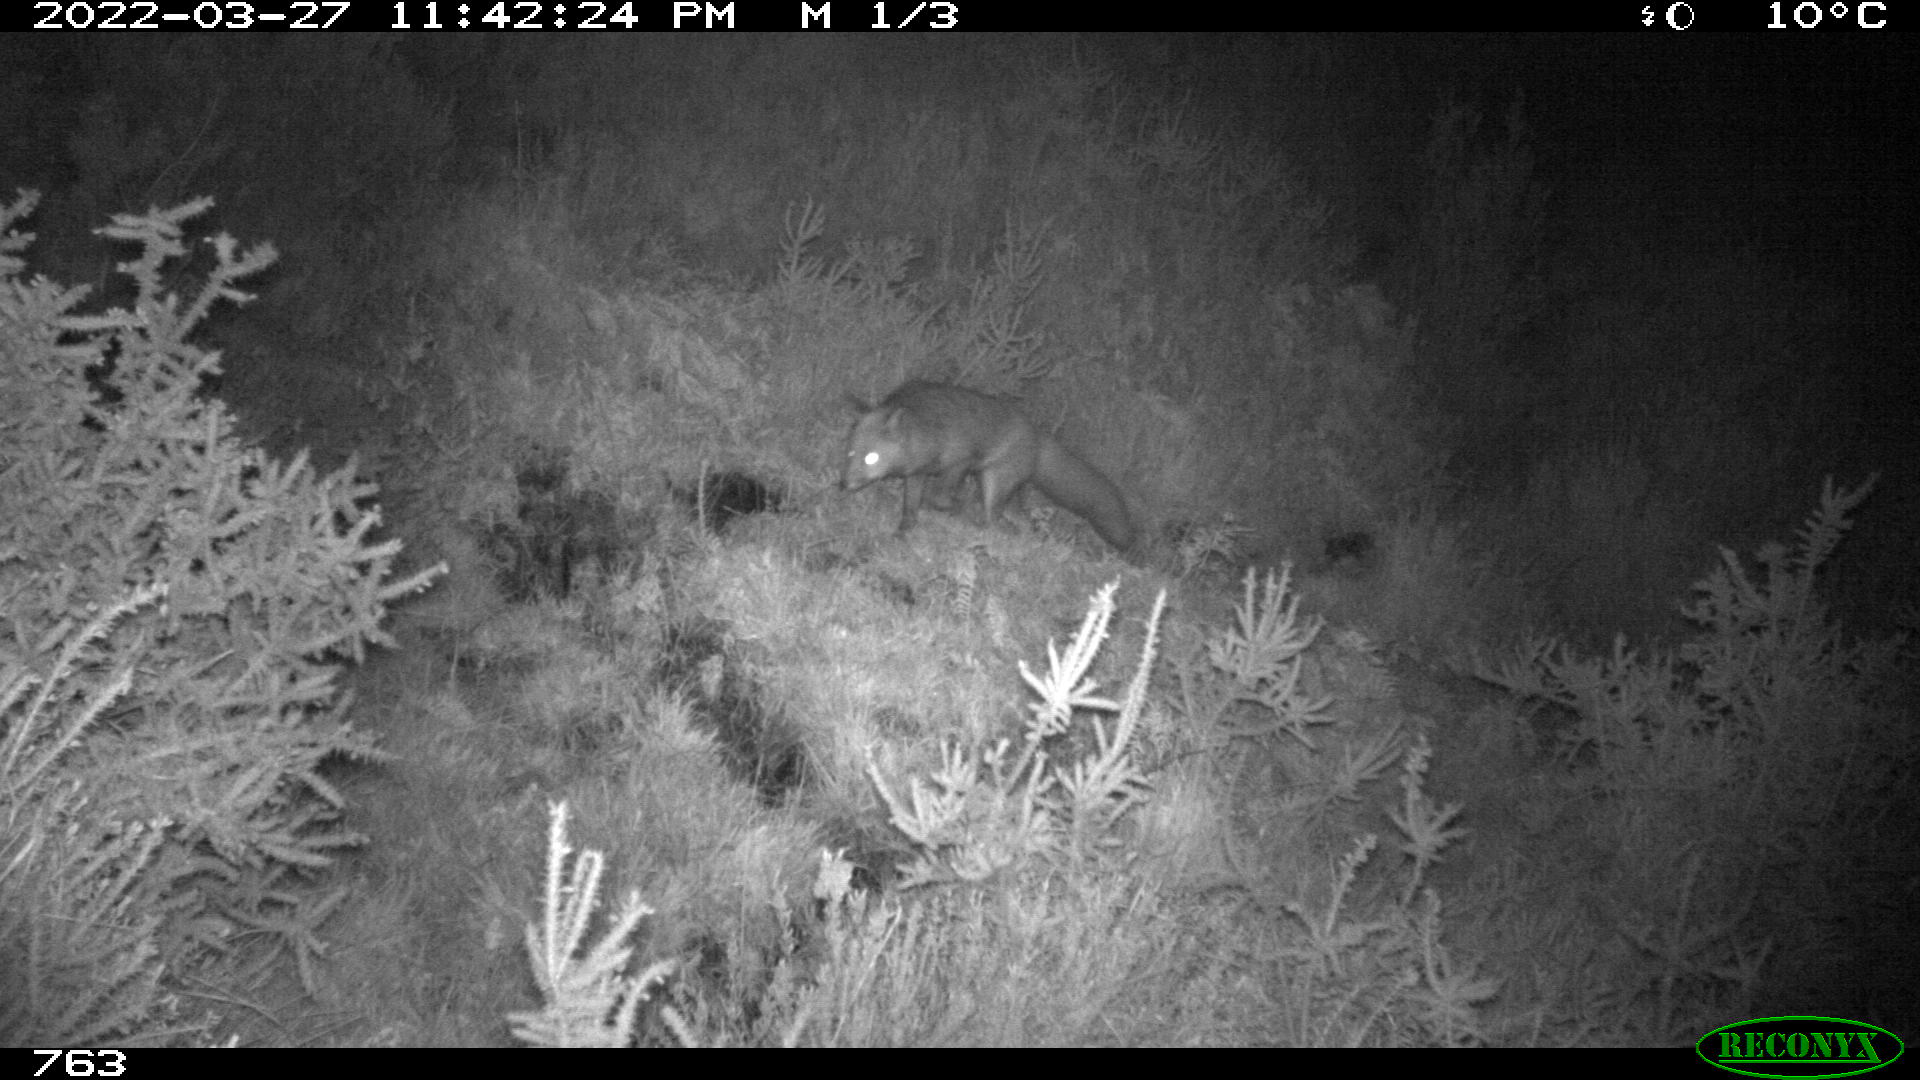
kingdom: Animalia
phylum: Chordata
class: Mammalia
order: Carnivora
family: Canidae
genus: Vulpes
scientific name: Vulpes vulpes
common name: Red fox
